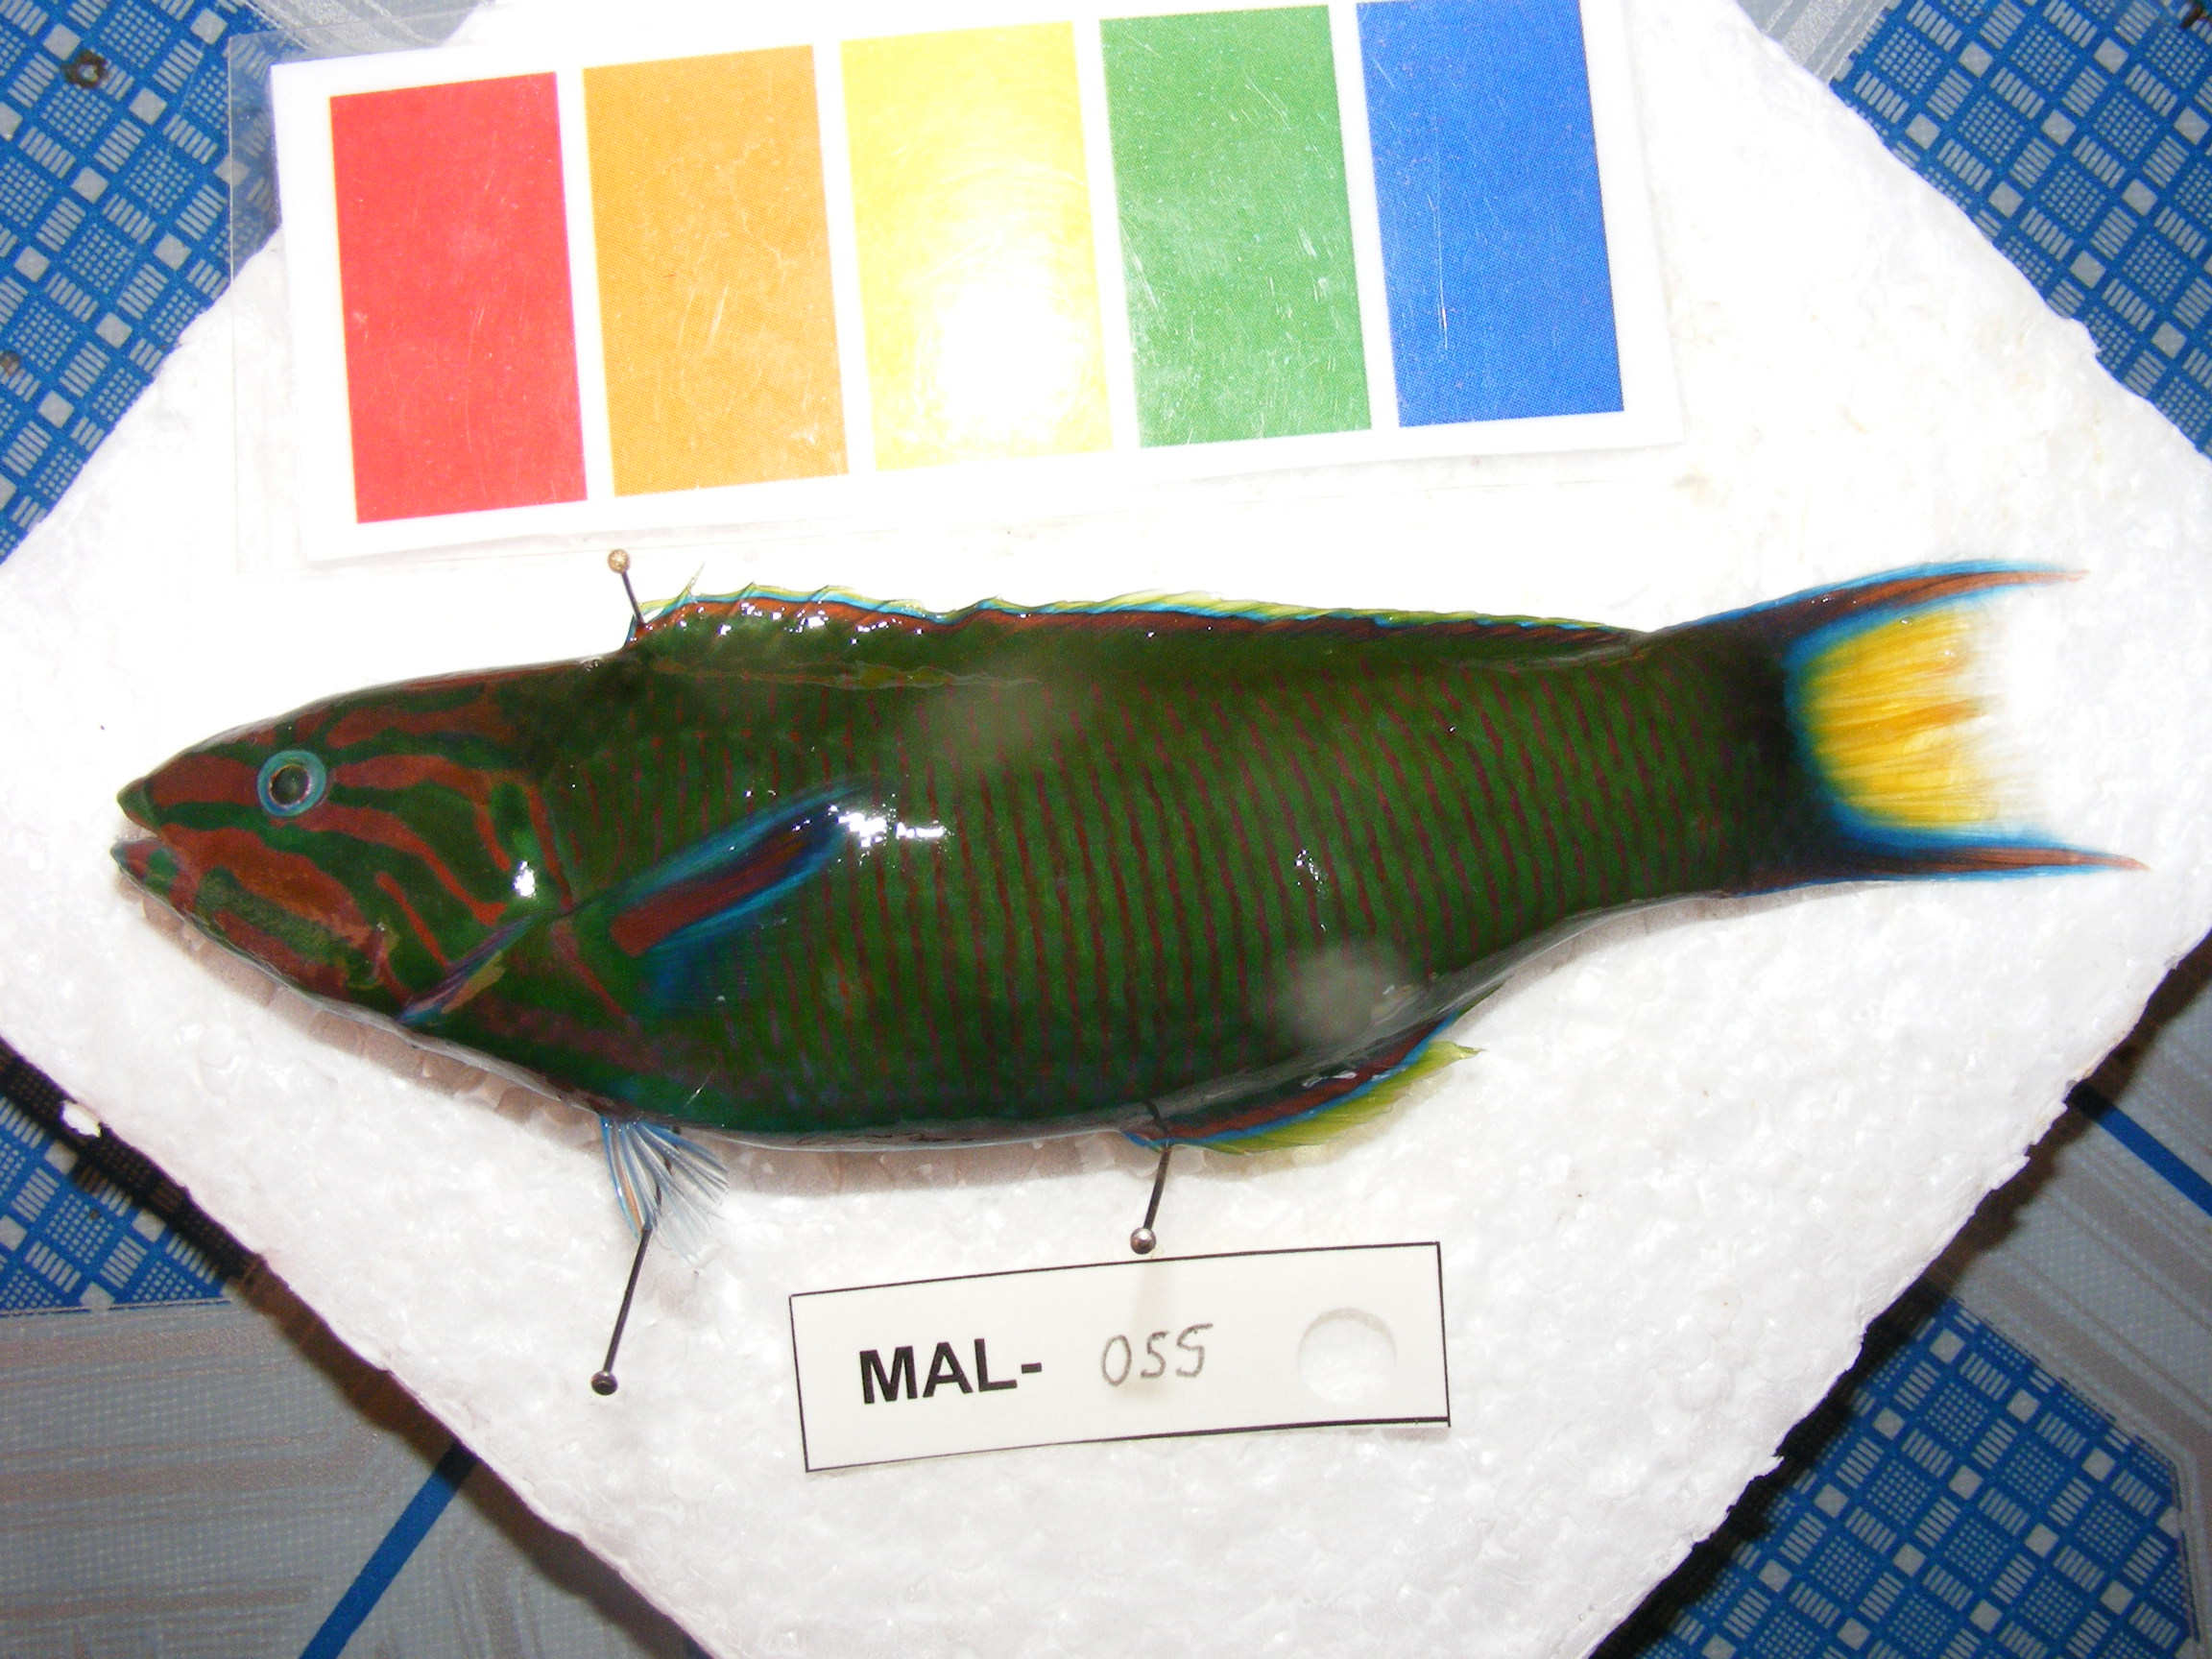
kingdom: Animalia
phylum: Chordata
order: Perciformes
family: Labridae
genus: Thalassoma
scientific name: Thalassoma lunare
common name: Blue wrasse
